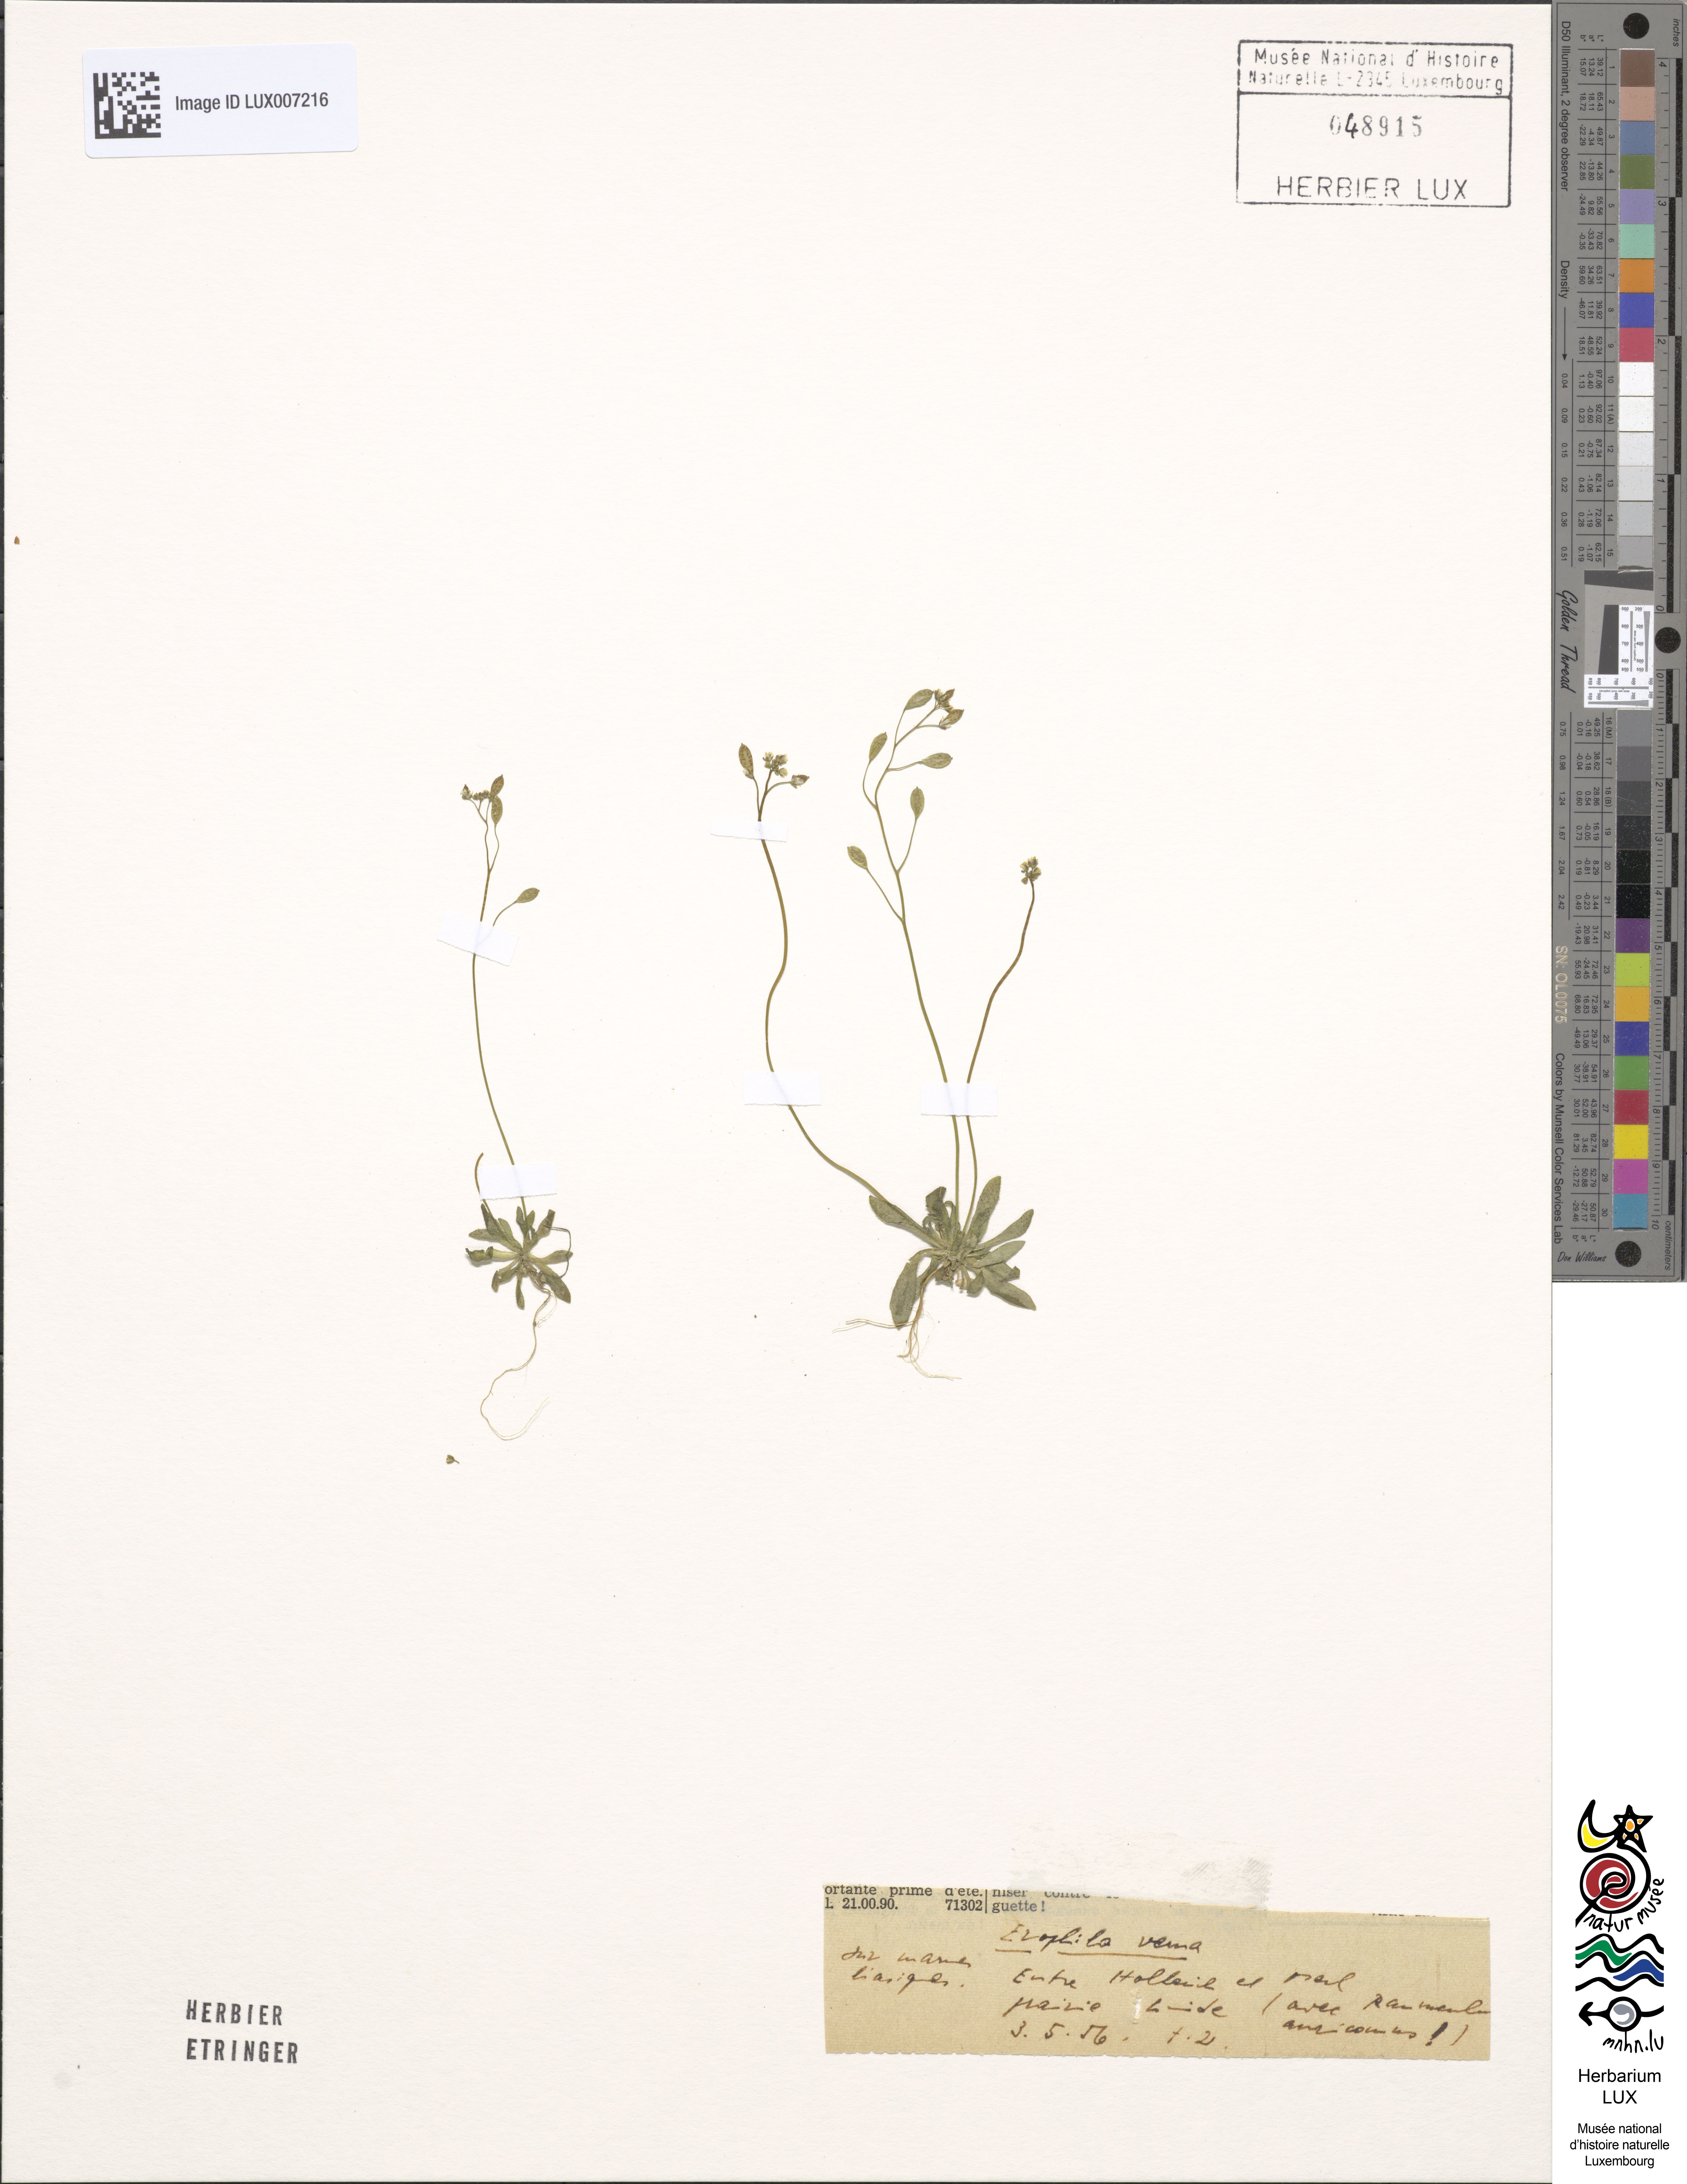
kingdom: Plantae
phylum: Tracheophyta
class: Magnoliopsida
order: Brassicales
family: Brassicaceae
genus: Draba
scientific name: Draba verna
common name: Spring draba
